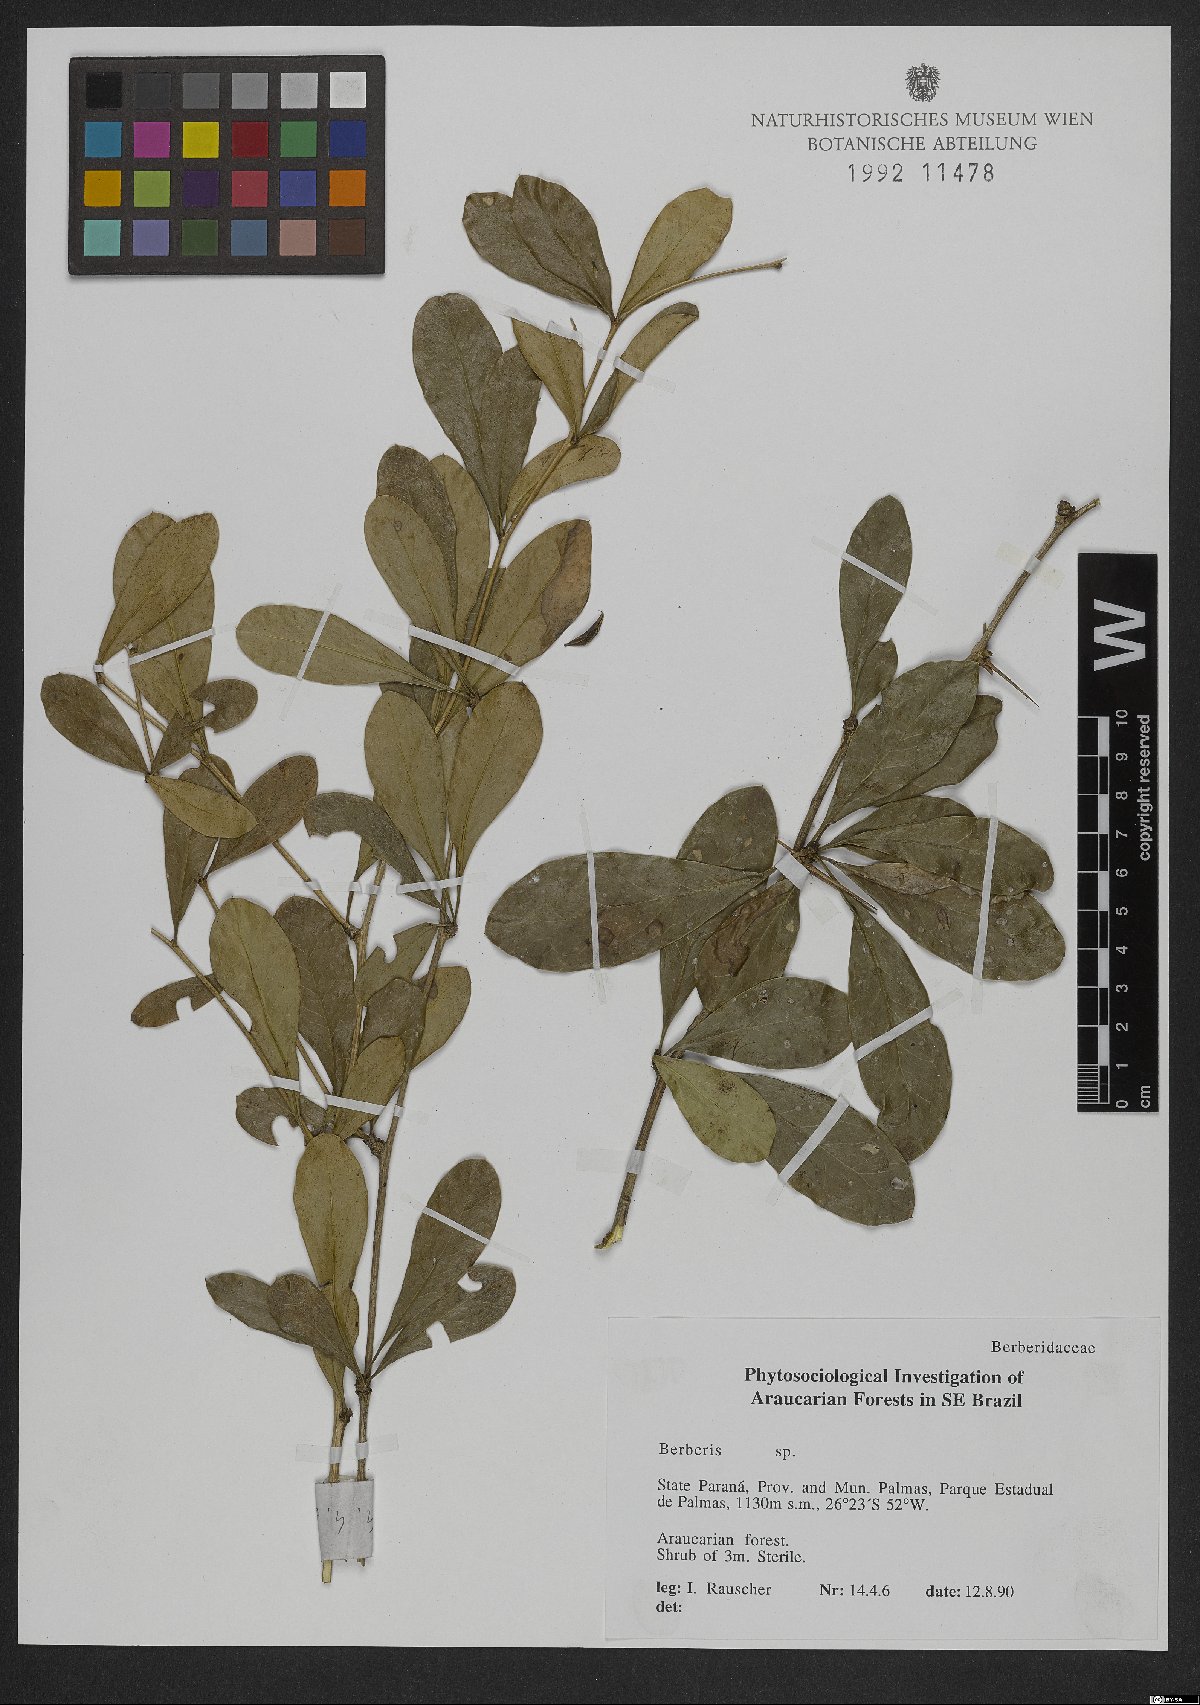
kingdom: Plantae
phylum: Tracheophyta
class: Magnoliopsida
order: Ranunculales
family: Berberidaceae
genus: Berberis
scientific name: Berberis
